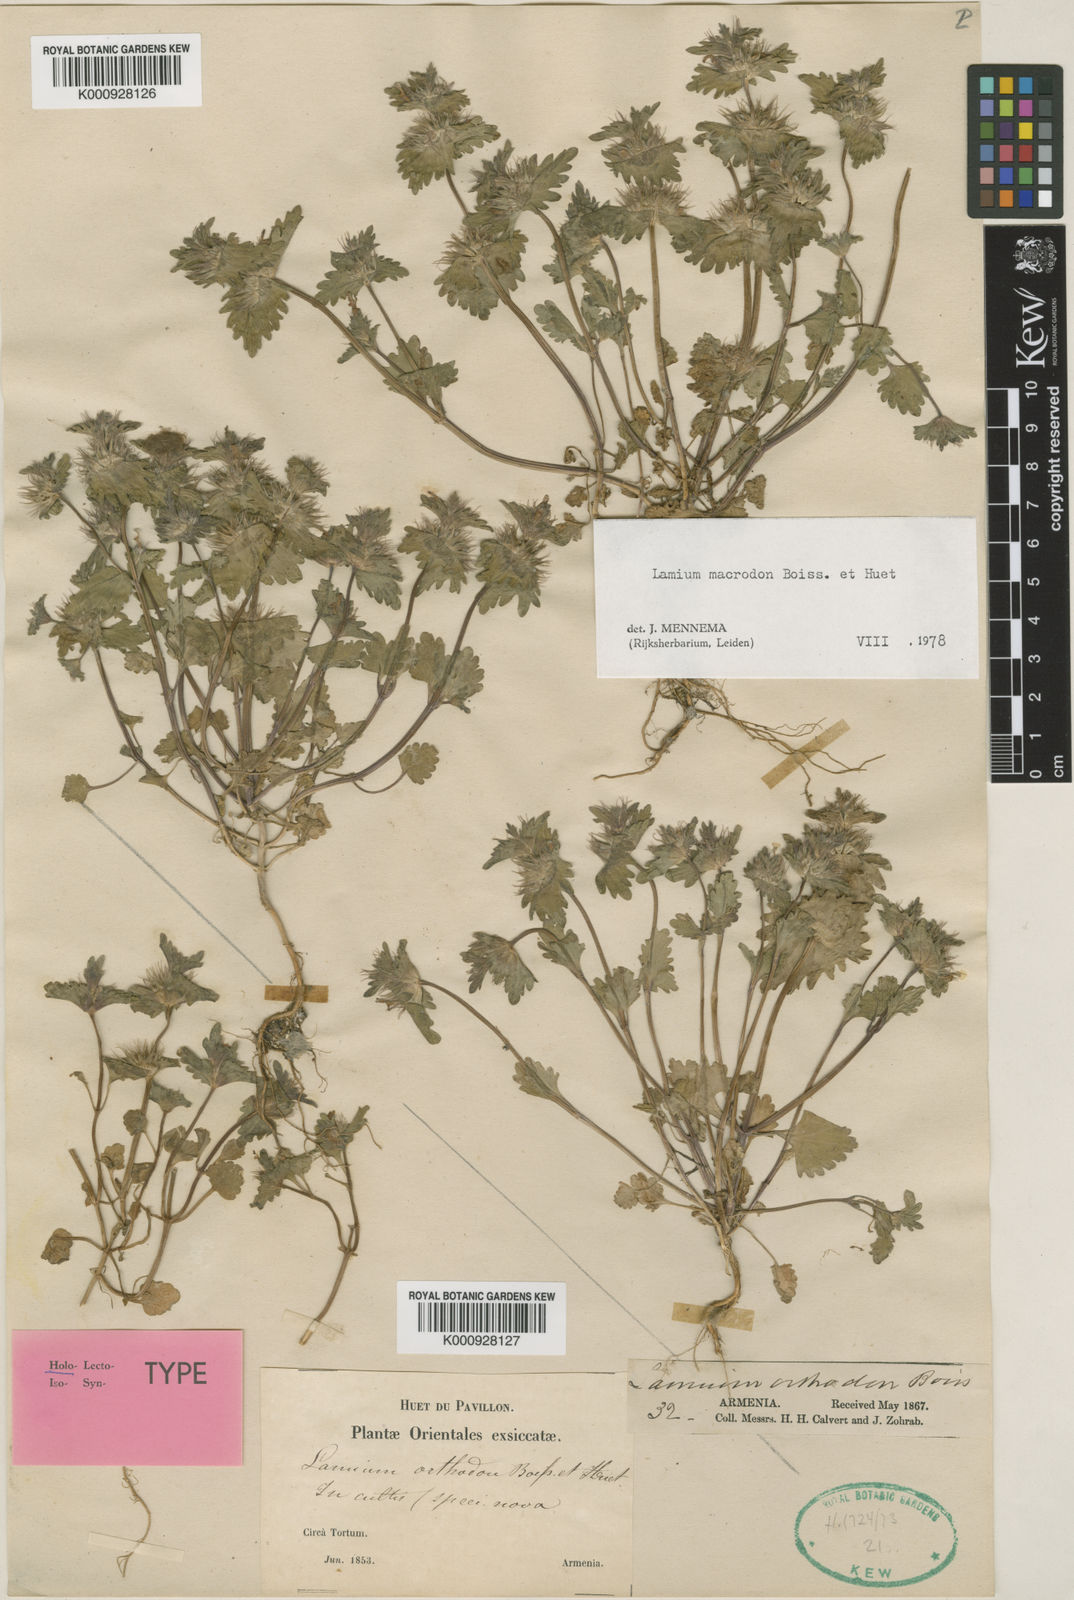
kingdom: Plantae
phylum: Tracheophyta
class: Magnoliopsida
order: Lamiales
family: Lamiaceae
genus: Lamium
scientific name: Lamium macrodon
